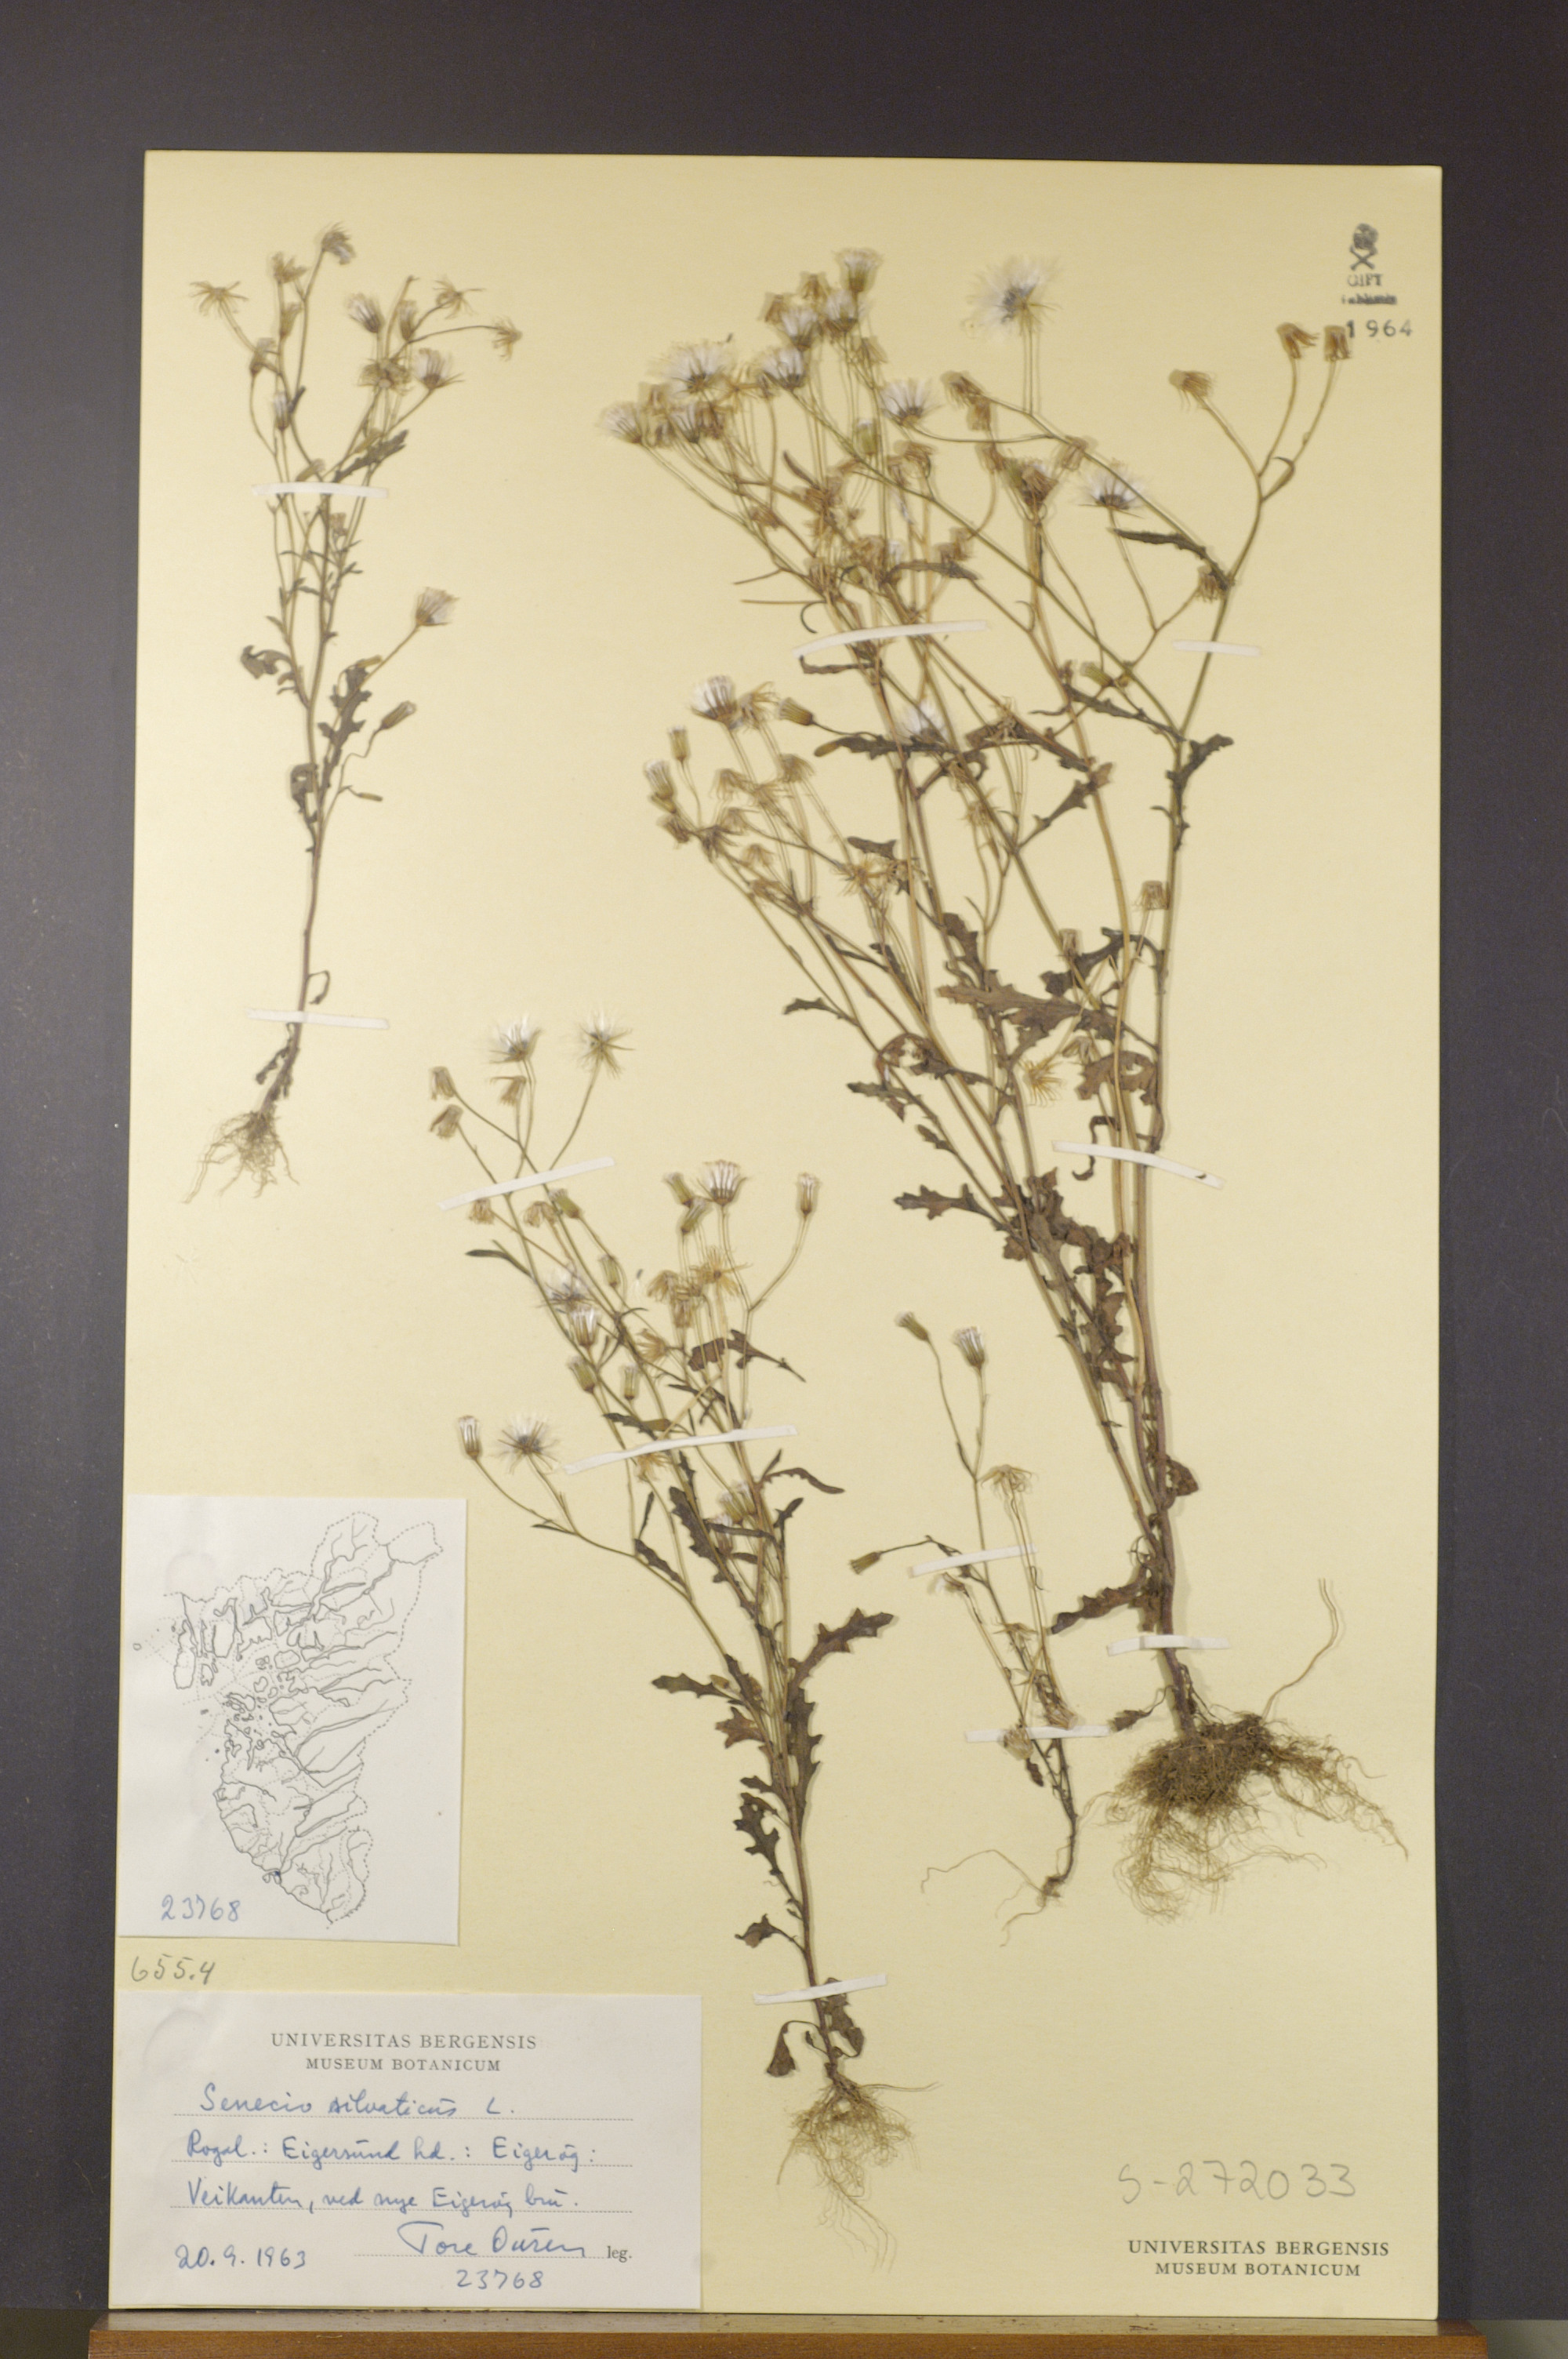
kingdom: Plantae
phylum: Tracheophyta
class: Magnoliopsida
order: Asterales
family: Asteraceae
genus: Senecio
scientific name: Senecio sylvaticus
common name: Woodland ragwort
